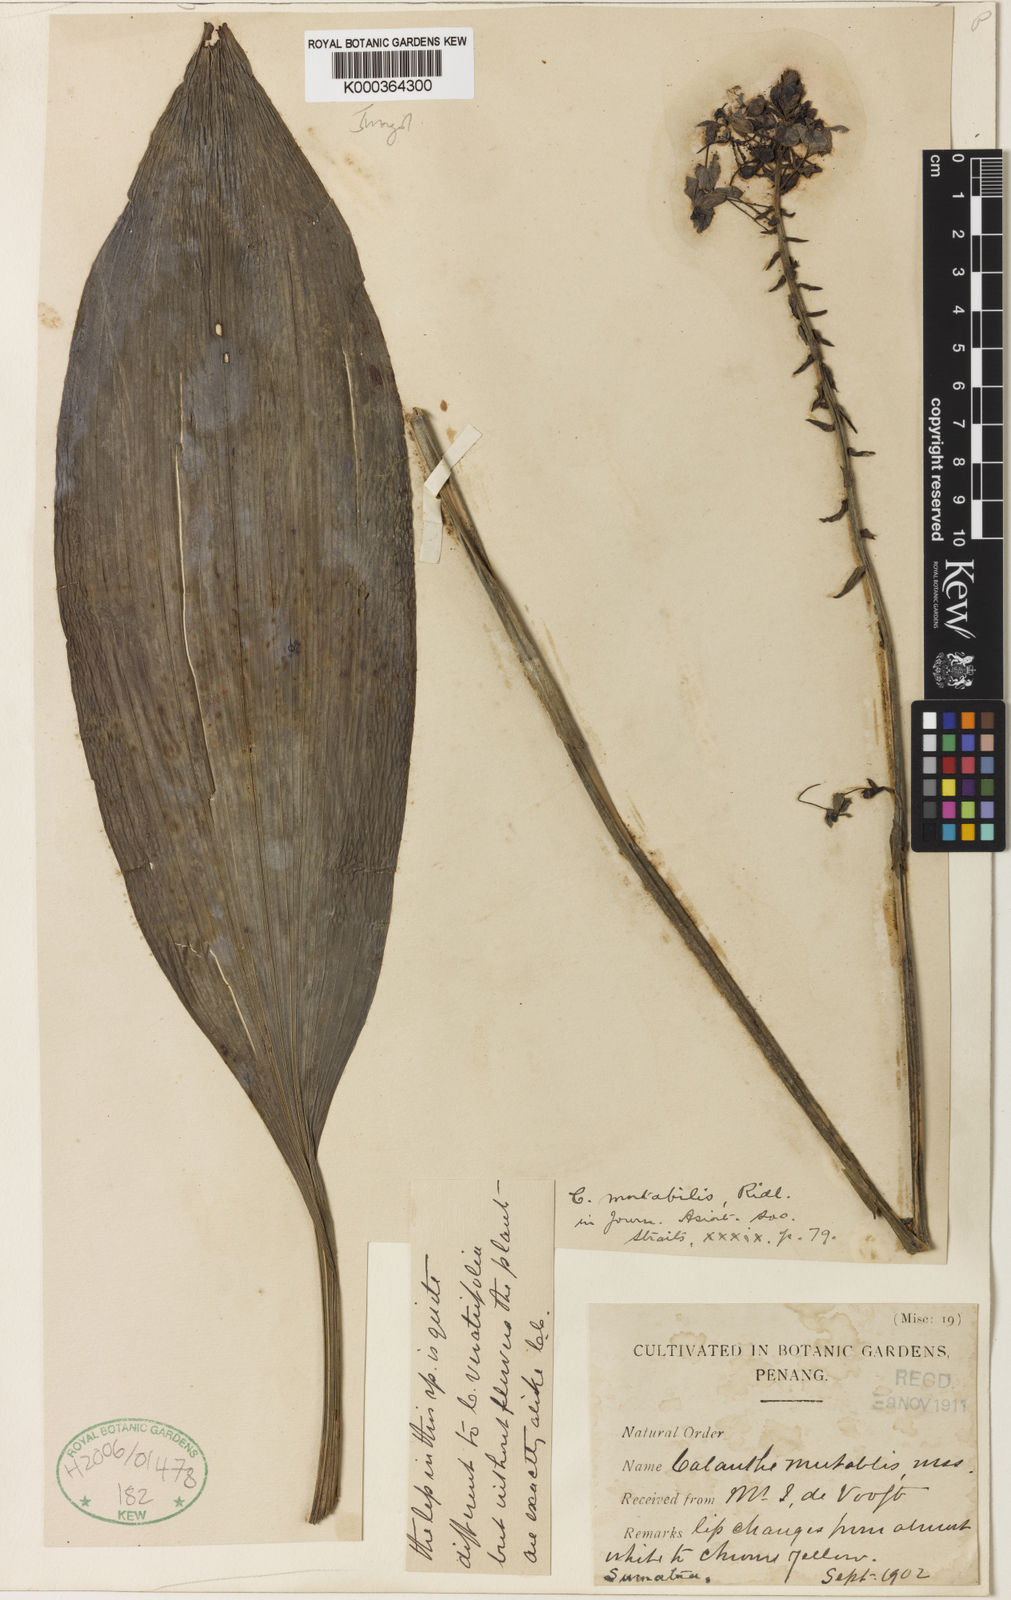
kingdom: Plantae
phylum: Tracheophyta
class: Liliopsida
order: Asparagales
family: Orchidaceae
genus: Calanthe
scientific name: Calanthe zollingeri
